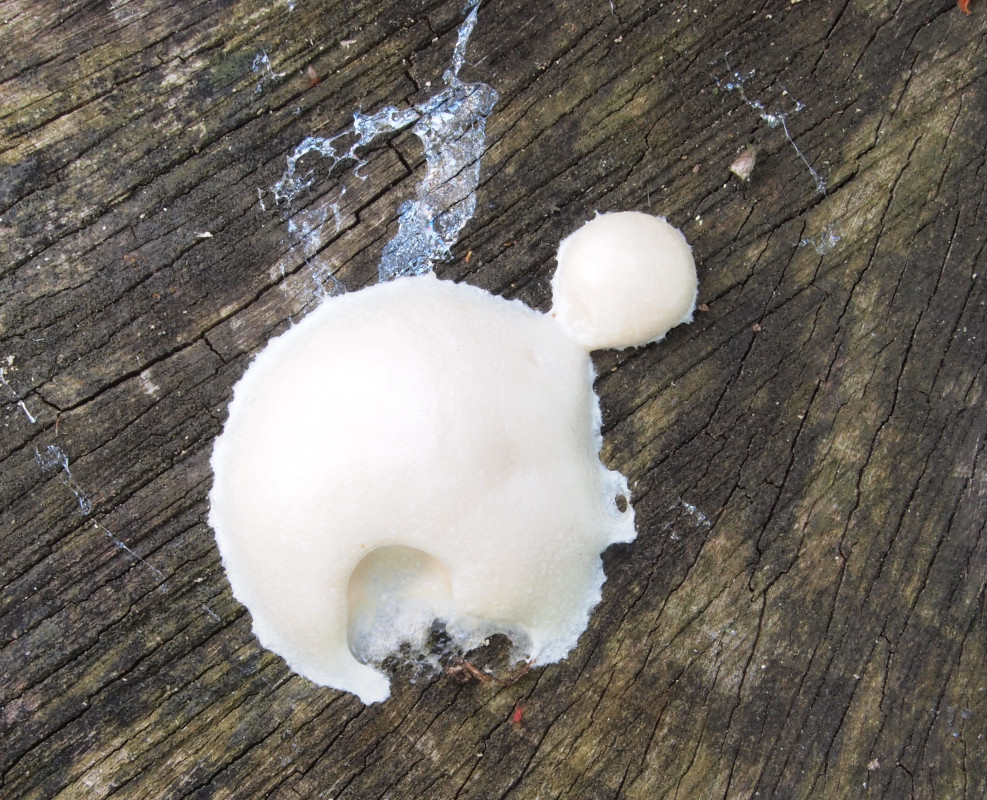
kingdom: Protozoa
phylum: Mycetozoa
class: Myxomycetes
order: Cribrariales
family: Tubiferaceae
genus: Reticularia
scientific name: Reticularia lycoperdon
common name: skinnende støvpude
